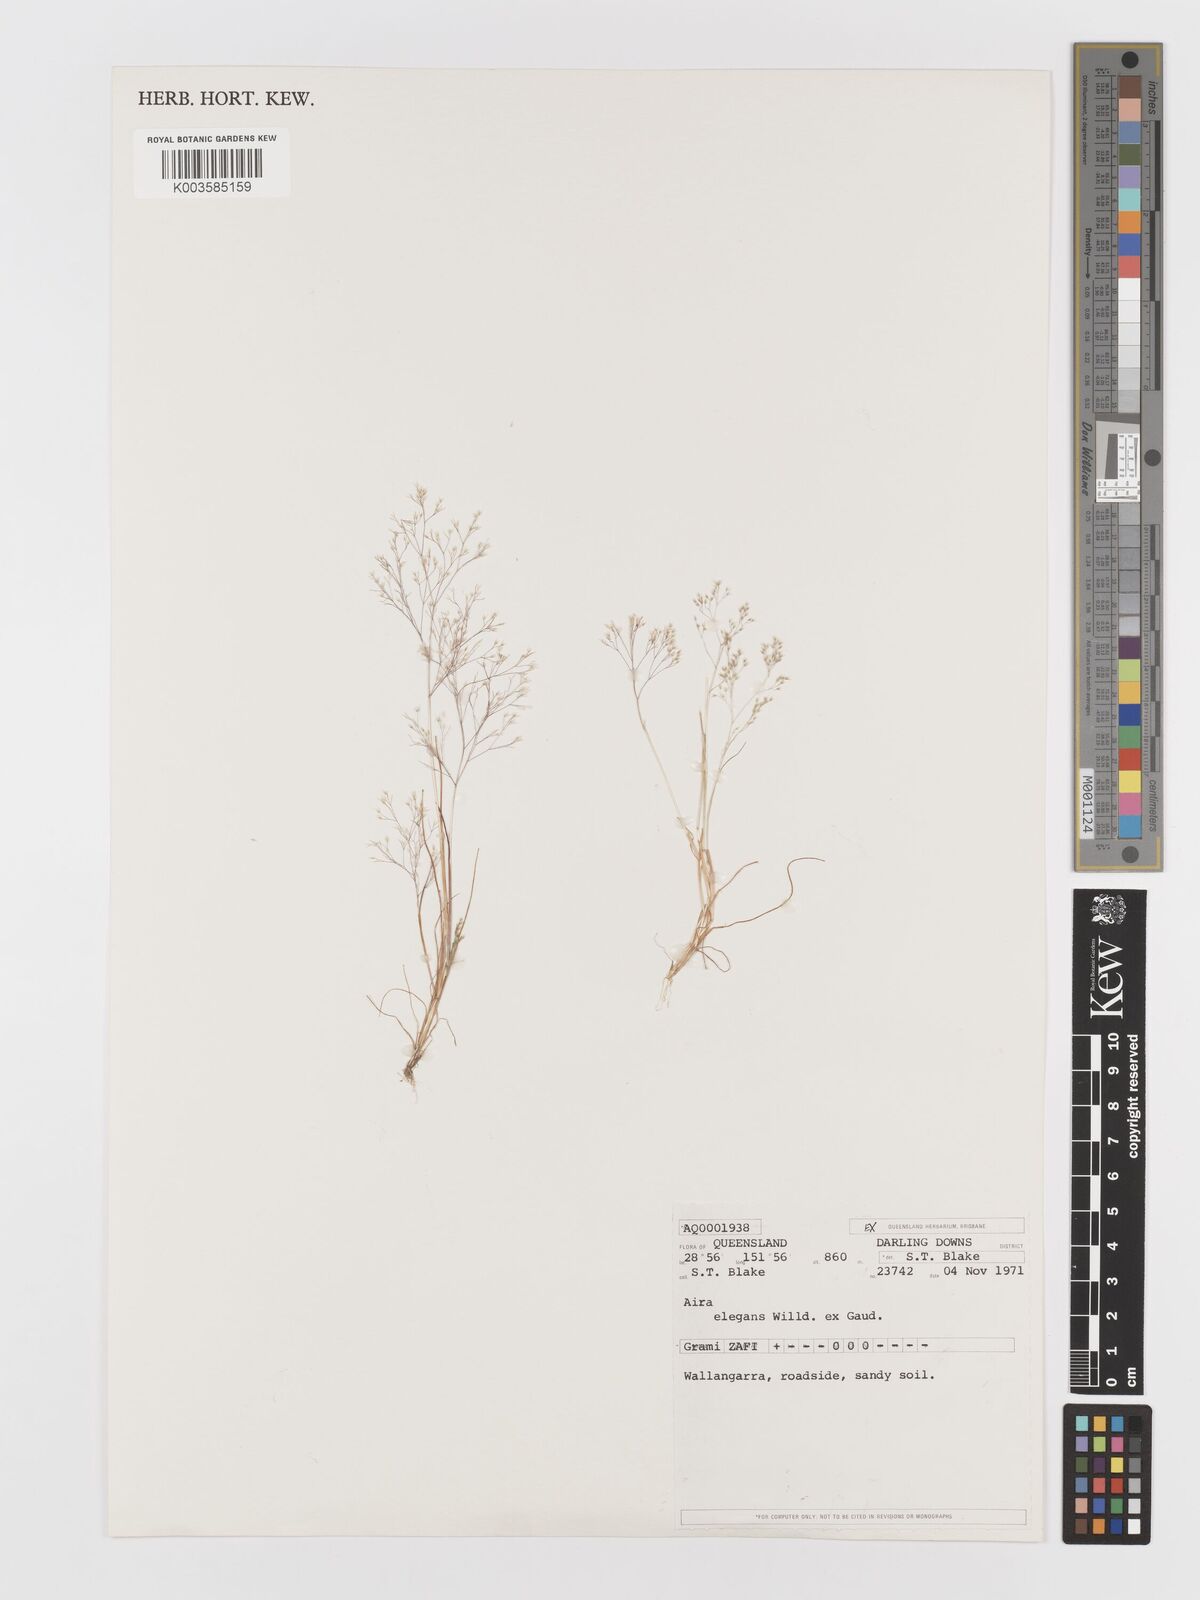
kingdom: Plantae
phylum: Tracheophyta
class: Liliopsida
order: Poales
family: Poaceae
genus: Aira
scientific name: Aira elegans
